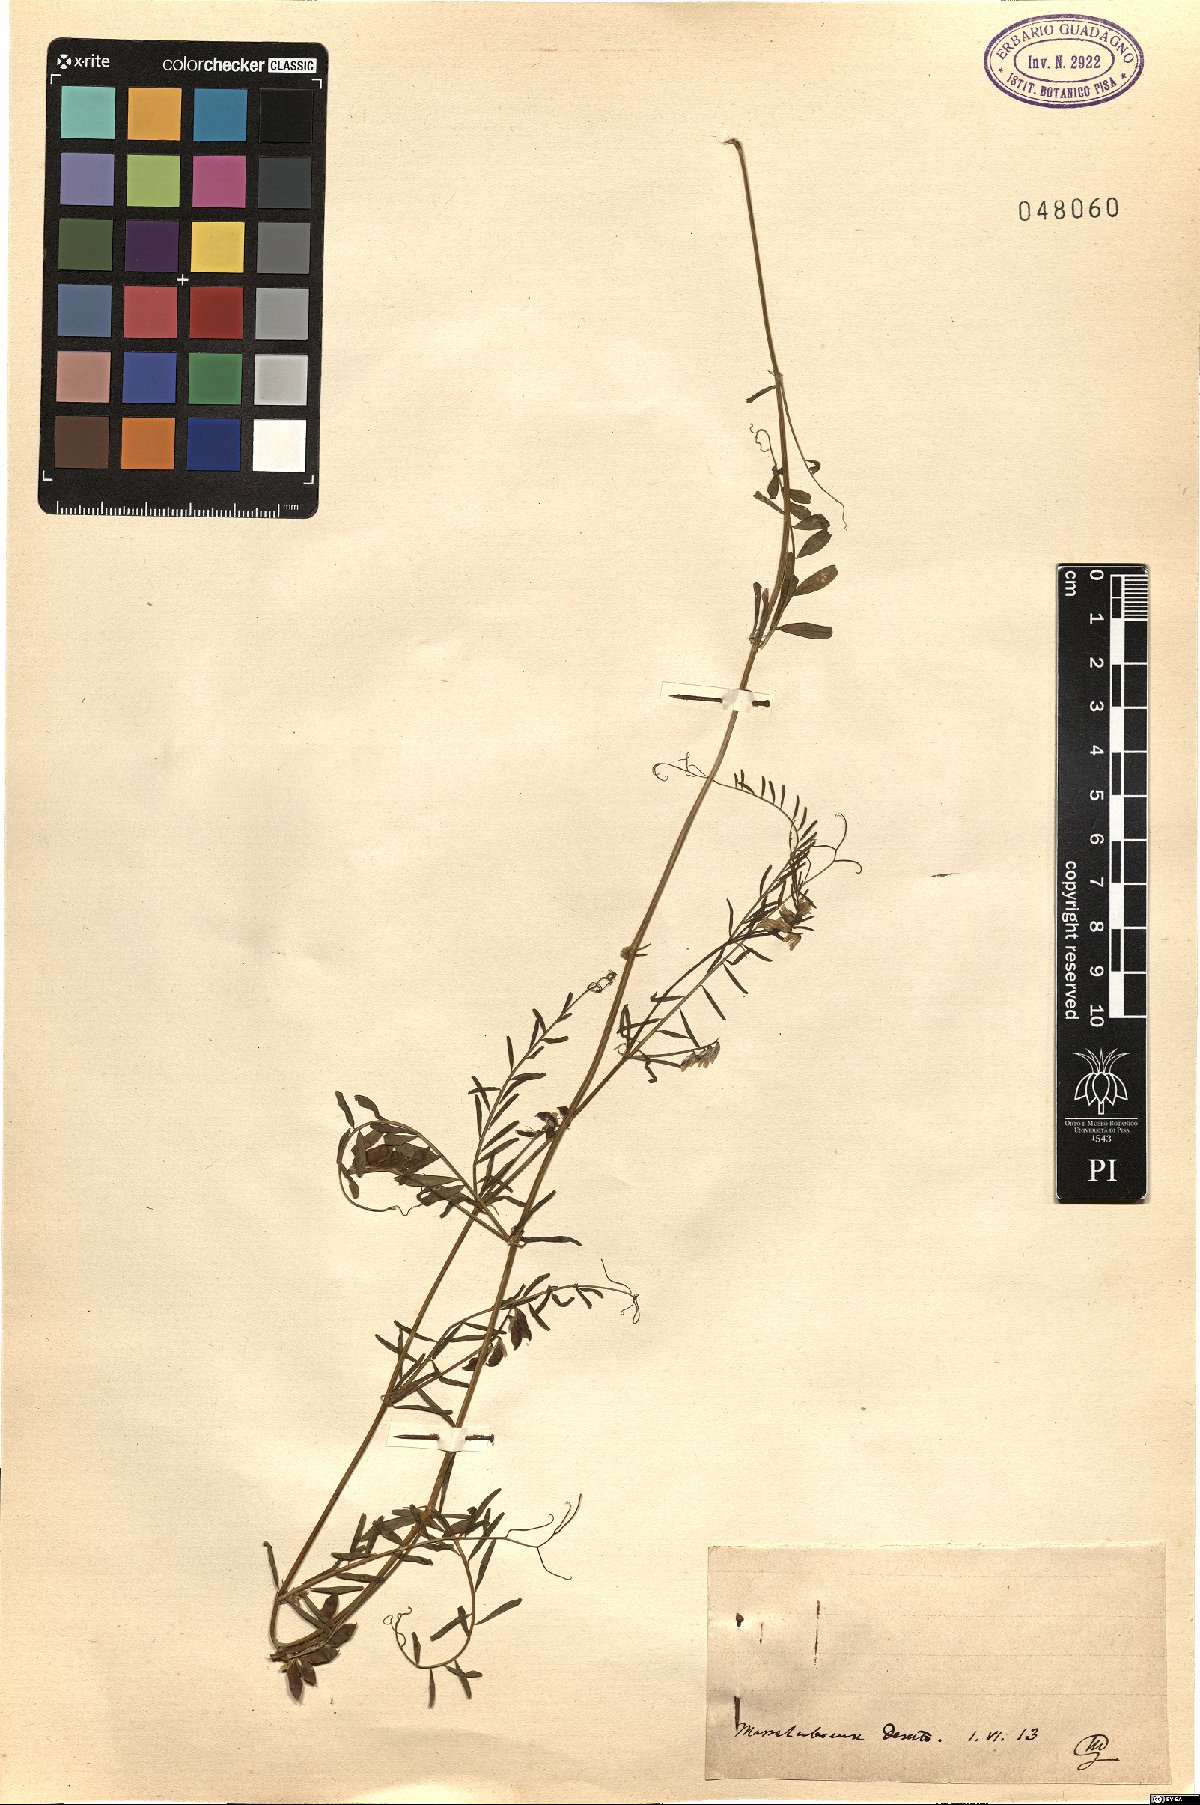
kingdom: Plantae
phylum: Tracheophyta
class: Magnoliopsida
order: Fabales
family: Fabaceae
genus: Vicia
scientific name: Vicia
